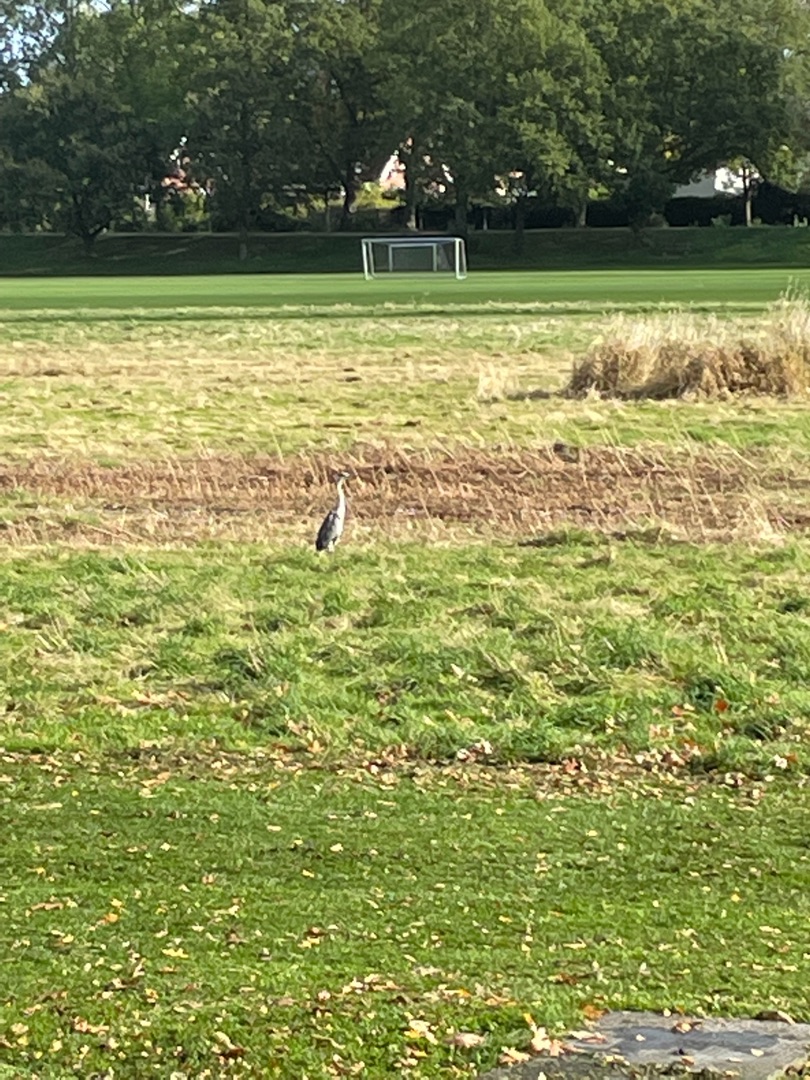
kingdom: Animalia
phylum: Chordata
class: Aves
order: Pelecaniformes
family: Ardeidae
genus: Ardea
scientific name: Ardea cinerea
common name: Fiskehejre
